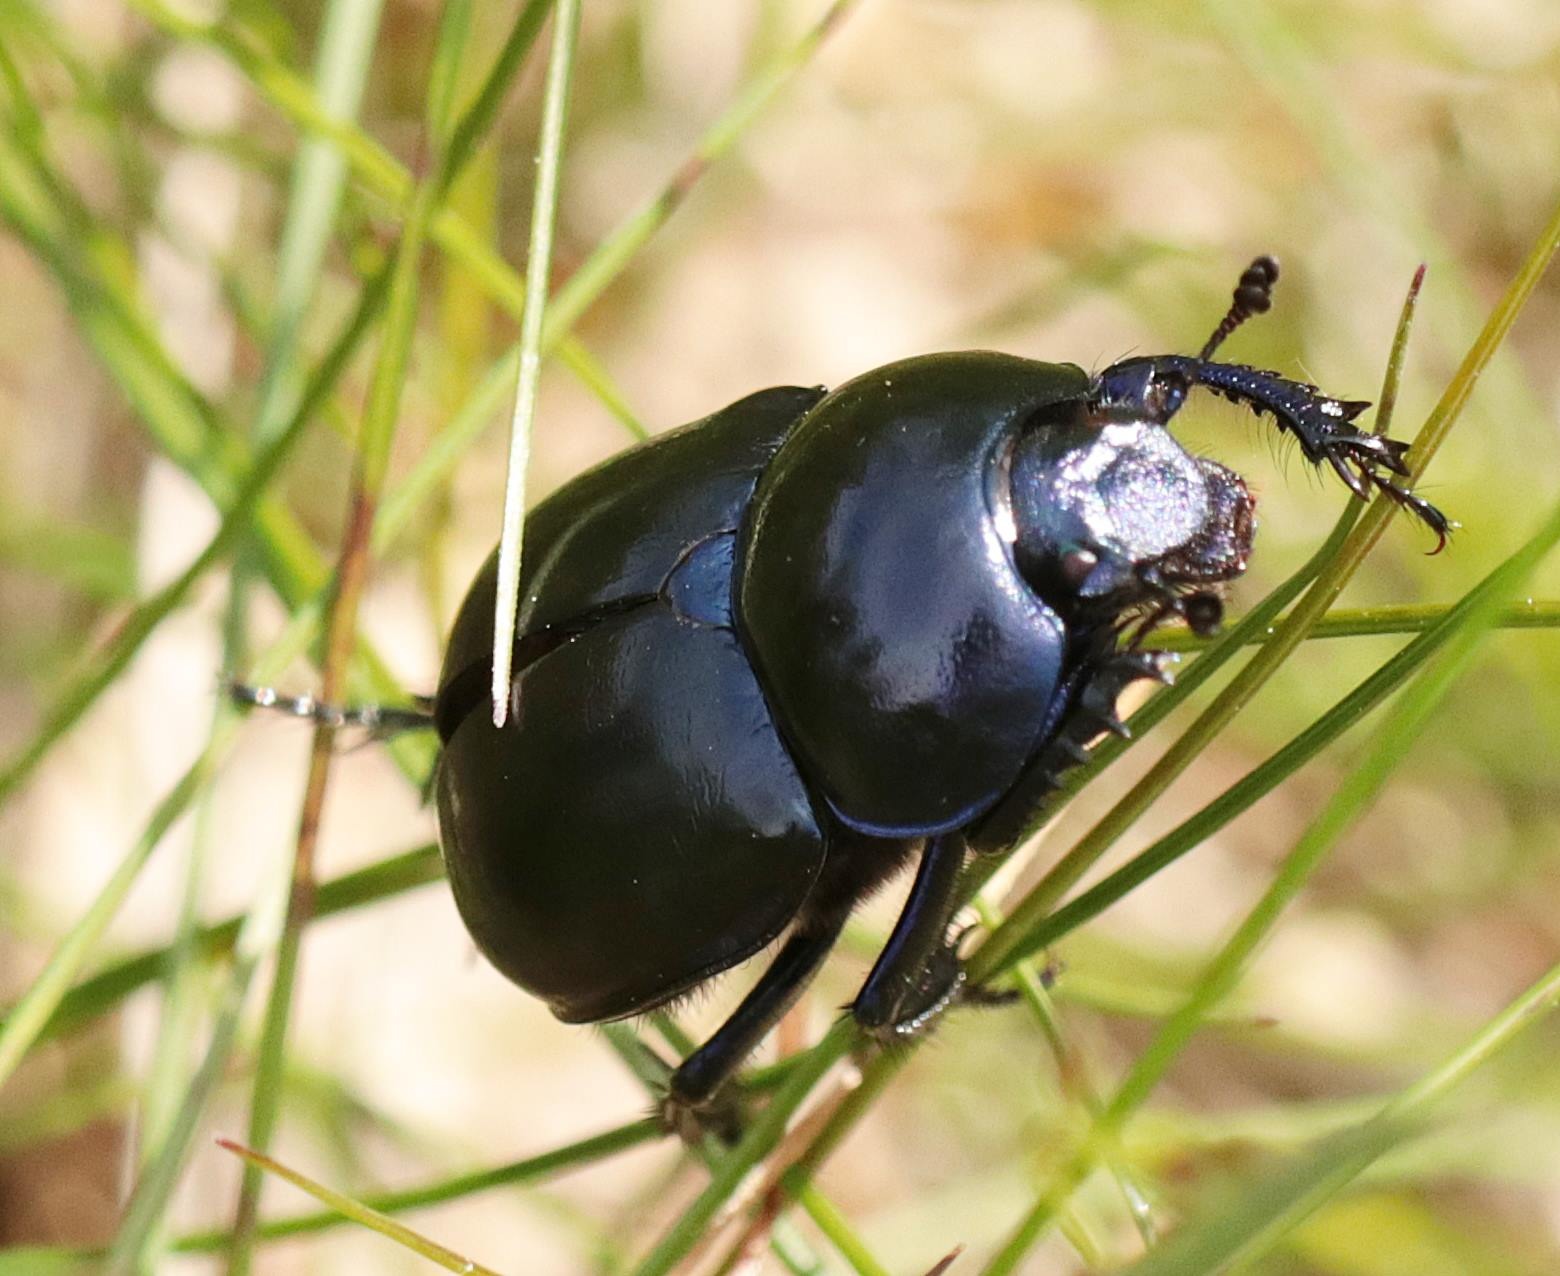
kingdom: Animalia
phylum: Arthropoda
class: Insecta
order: Coleoptera
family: Geotrupidae
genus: Trypocopris
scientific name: Trypocopris vernalis
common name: Glat skarnbasse
